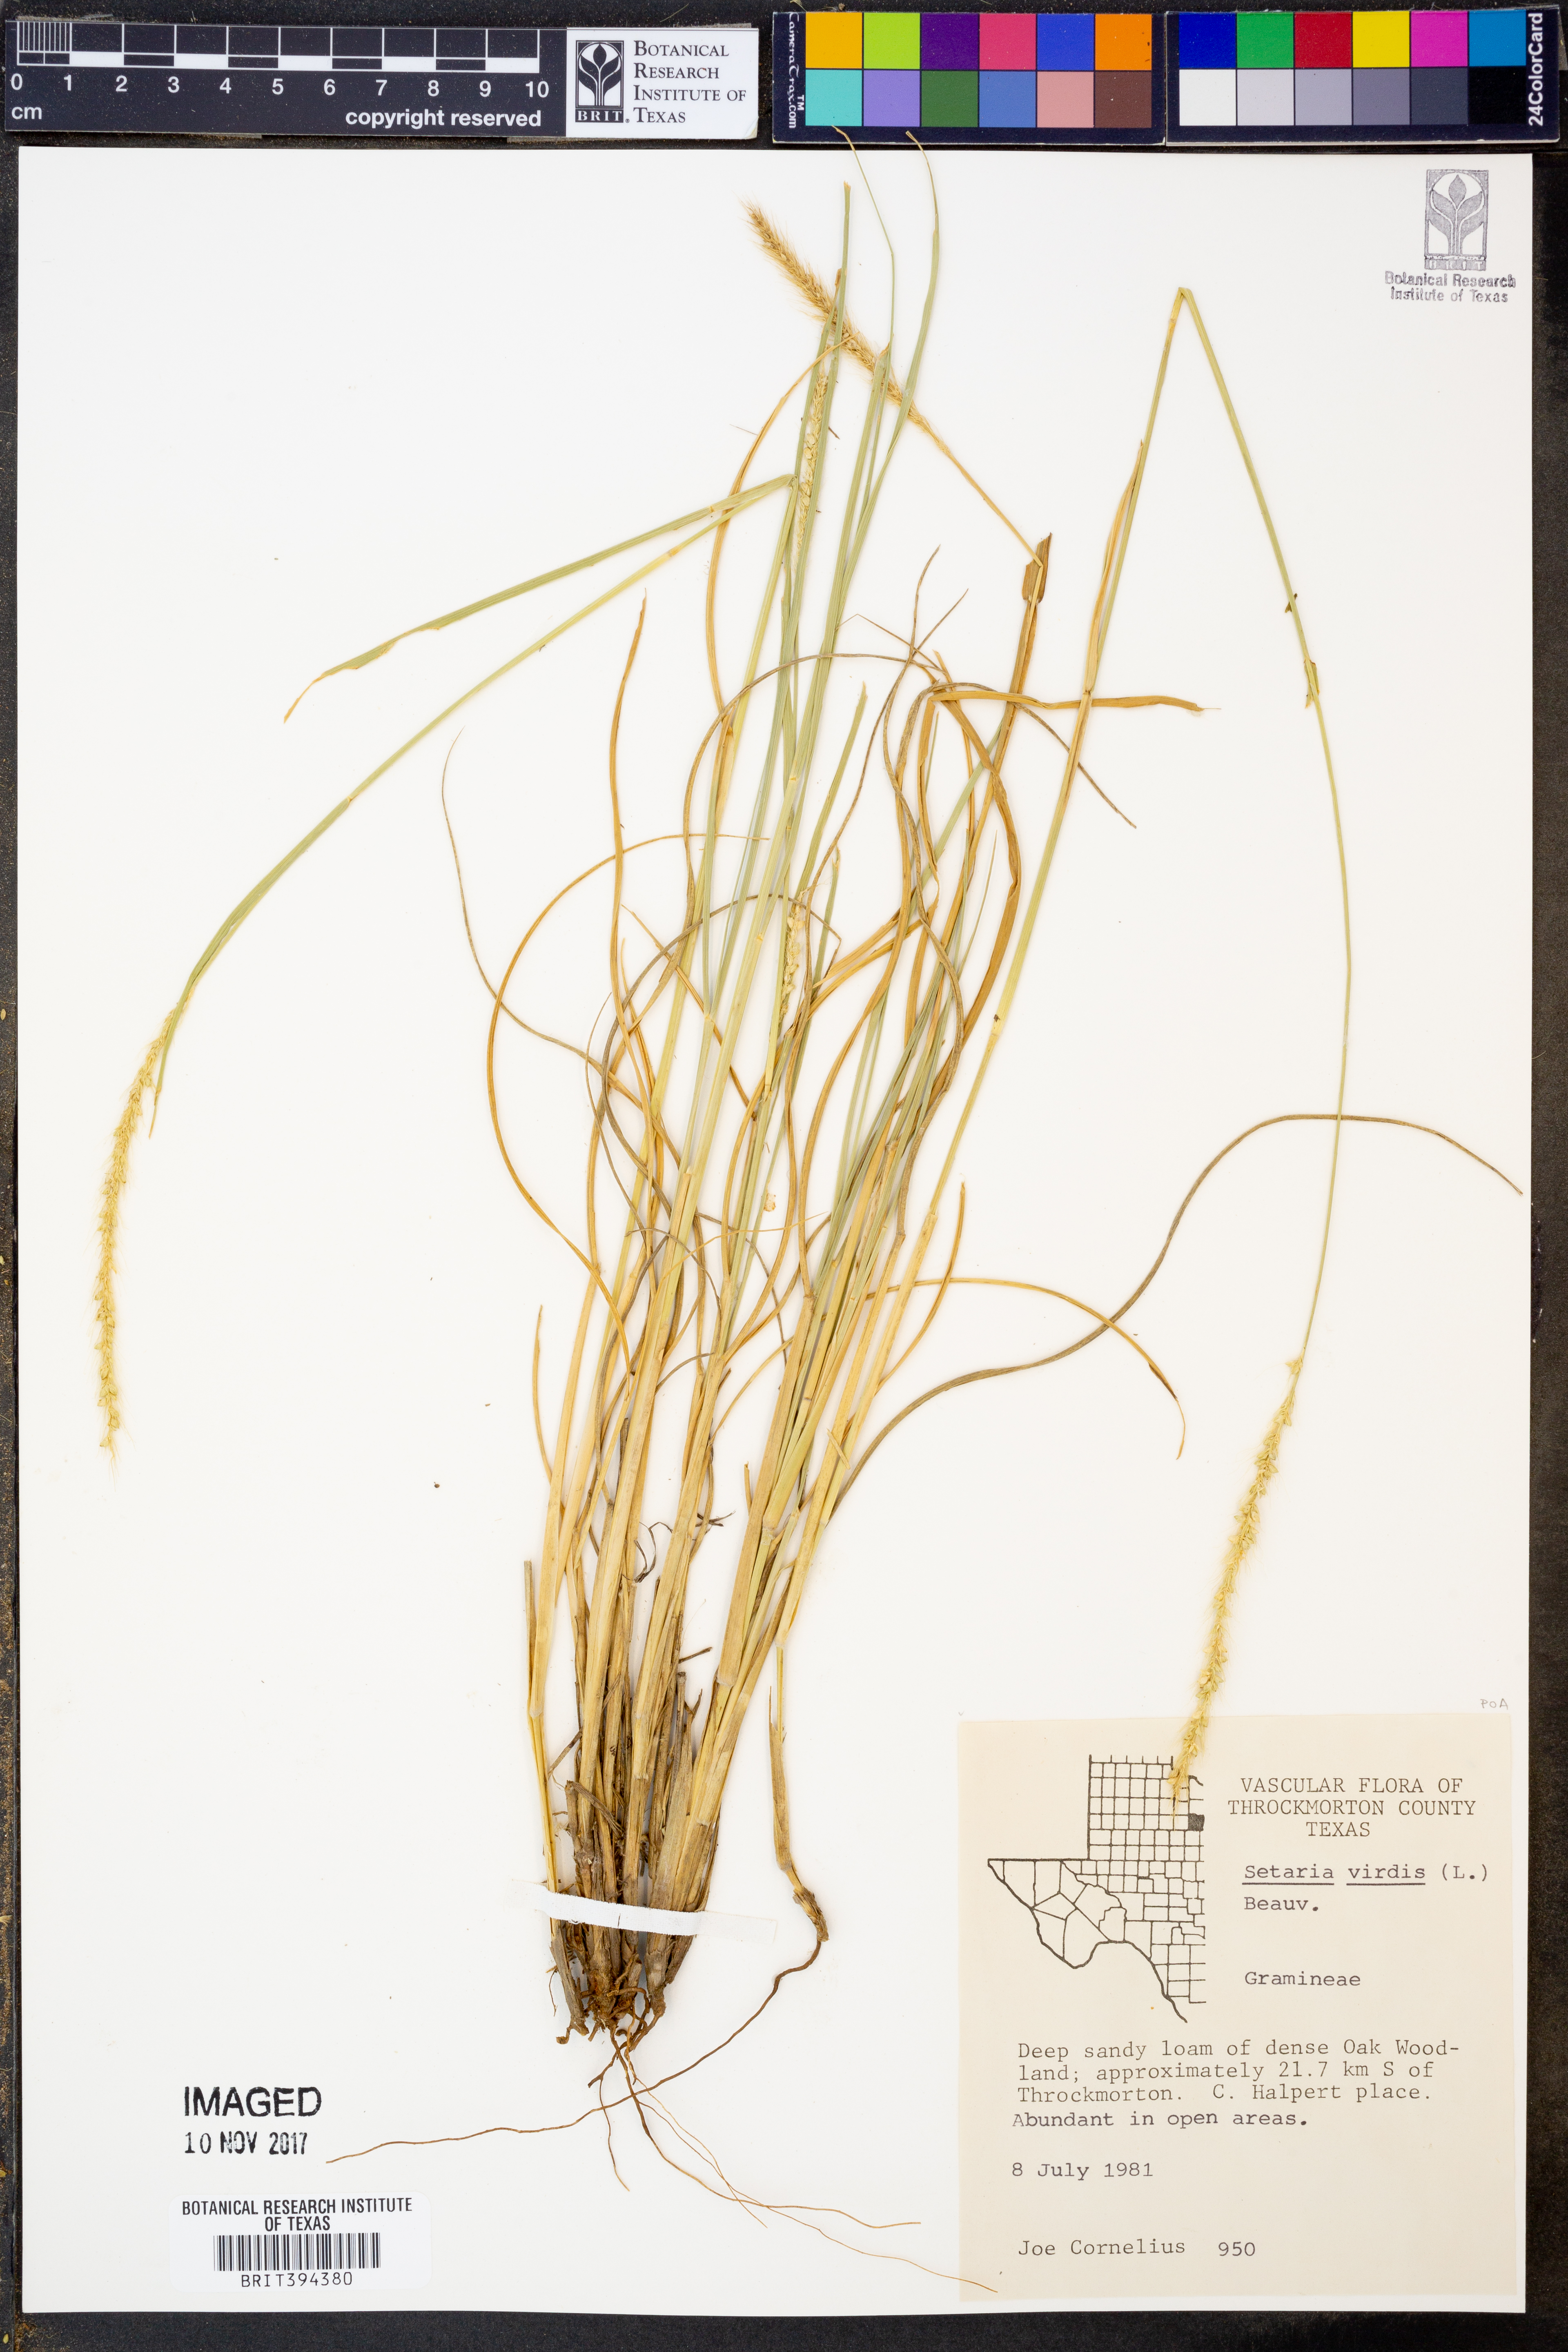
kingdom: Plantae
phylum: Tracheophyta
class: Liliopsida
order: Poales
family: Poaceae
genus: Setaria
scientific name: Setaria viridis
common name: Green bristlegrass
